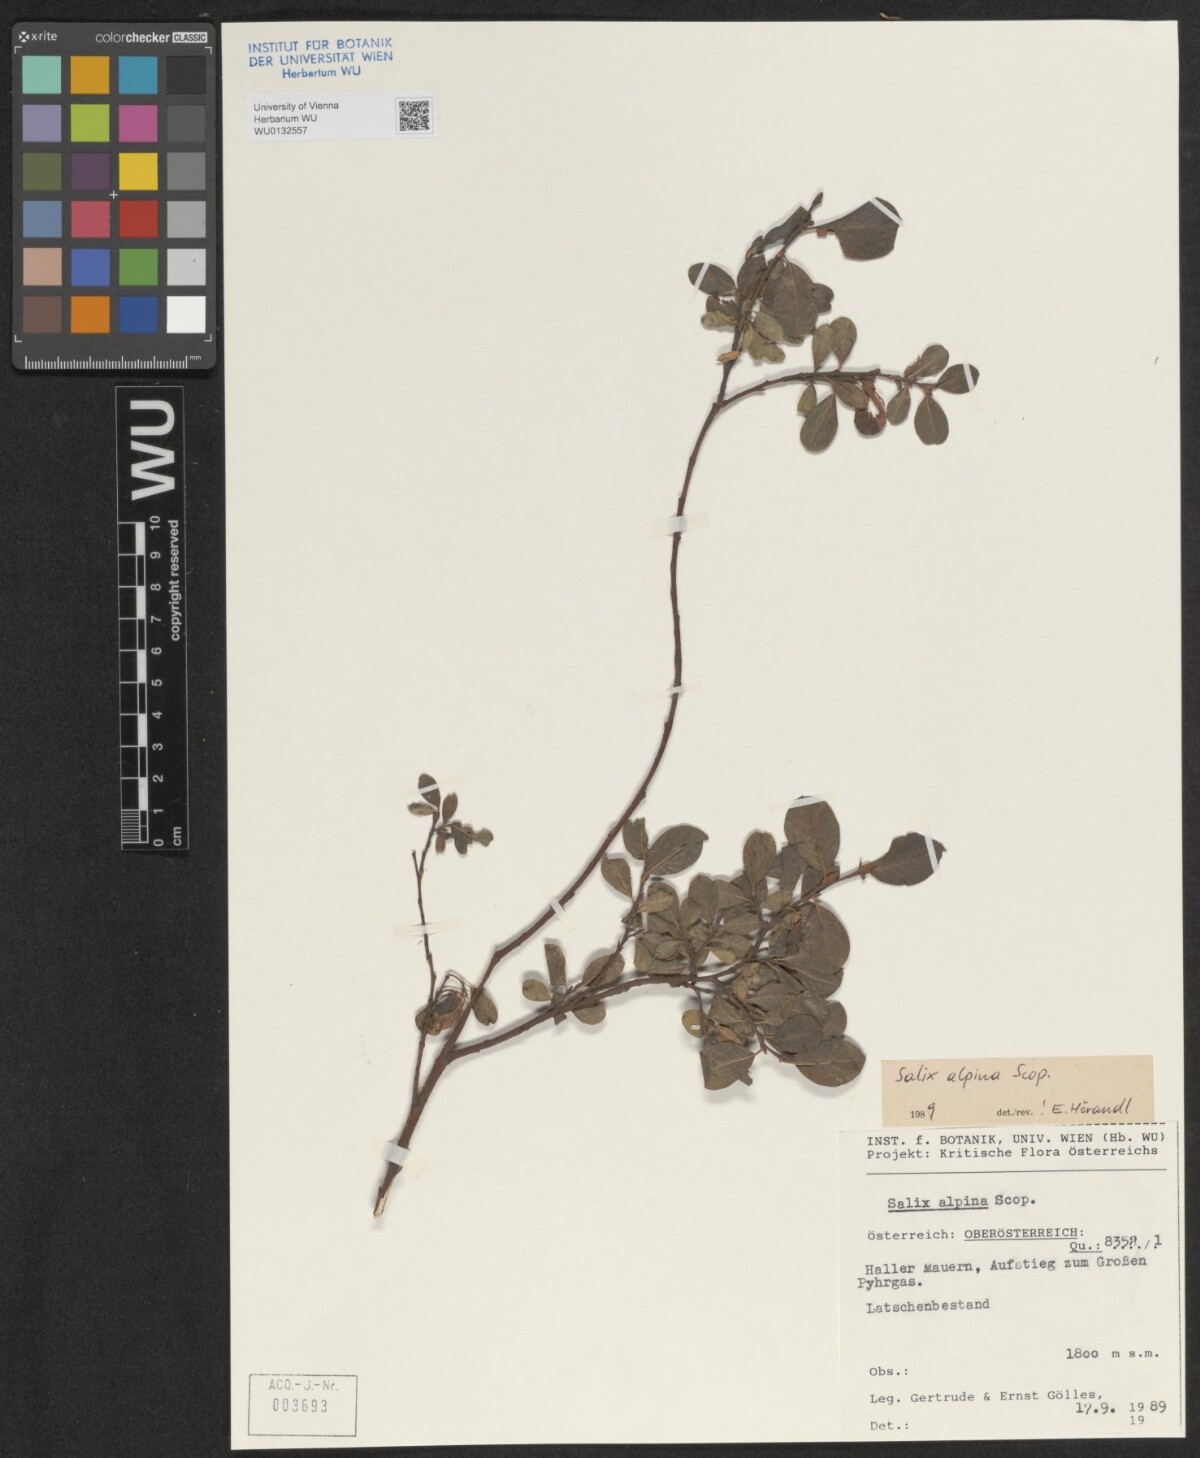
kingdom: Plantae
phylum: Tracheophyta
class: Magnoliopsida
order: Malpighiales
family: Salicaceae
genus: Salix
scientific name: Salix alpina
